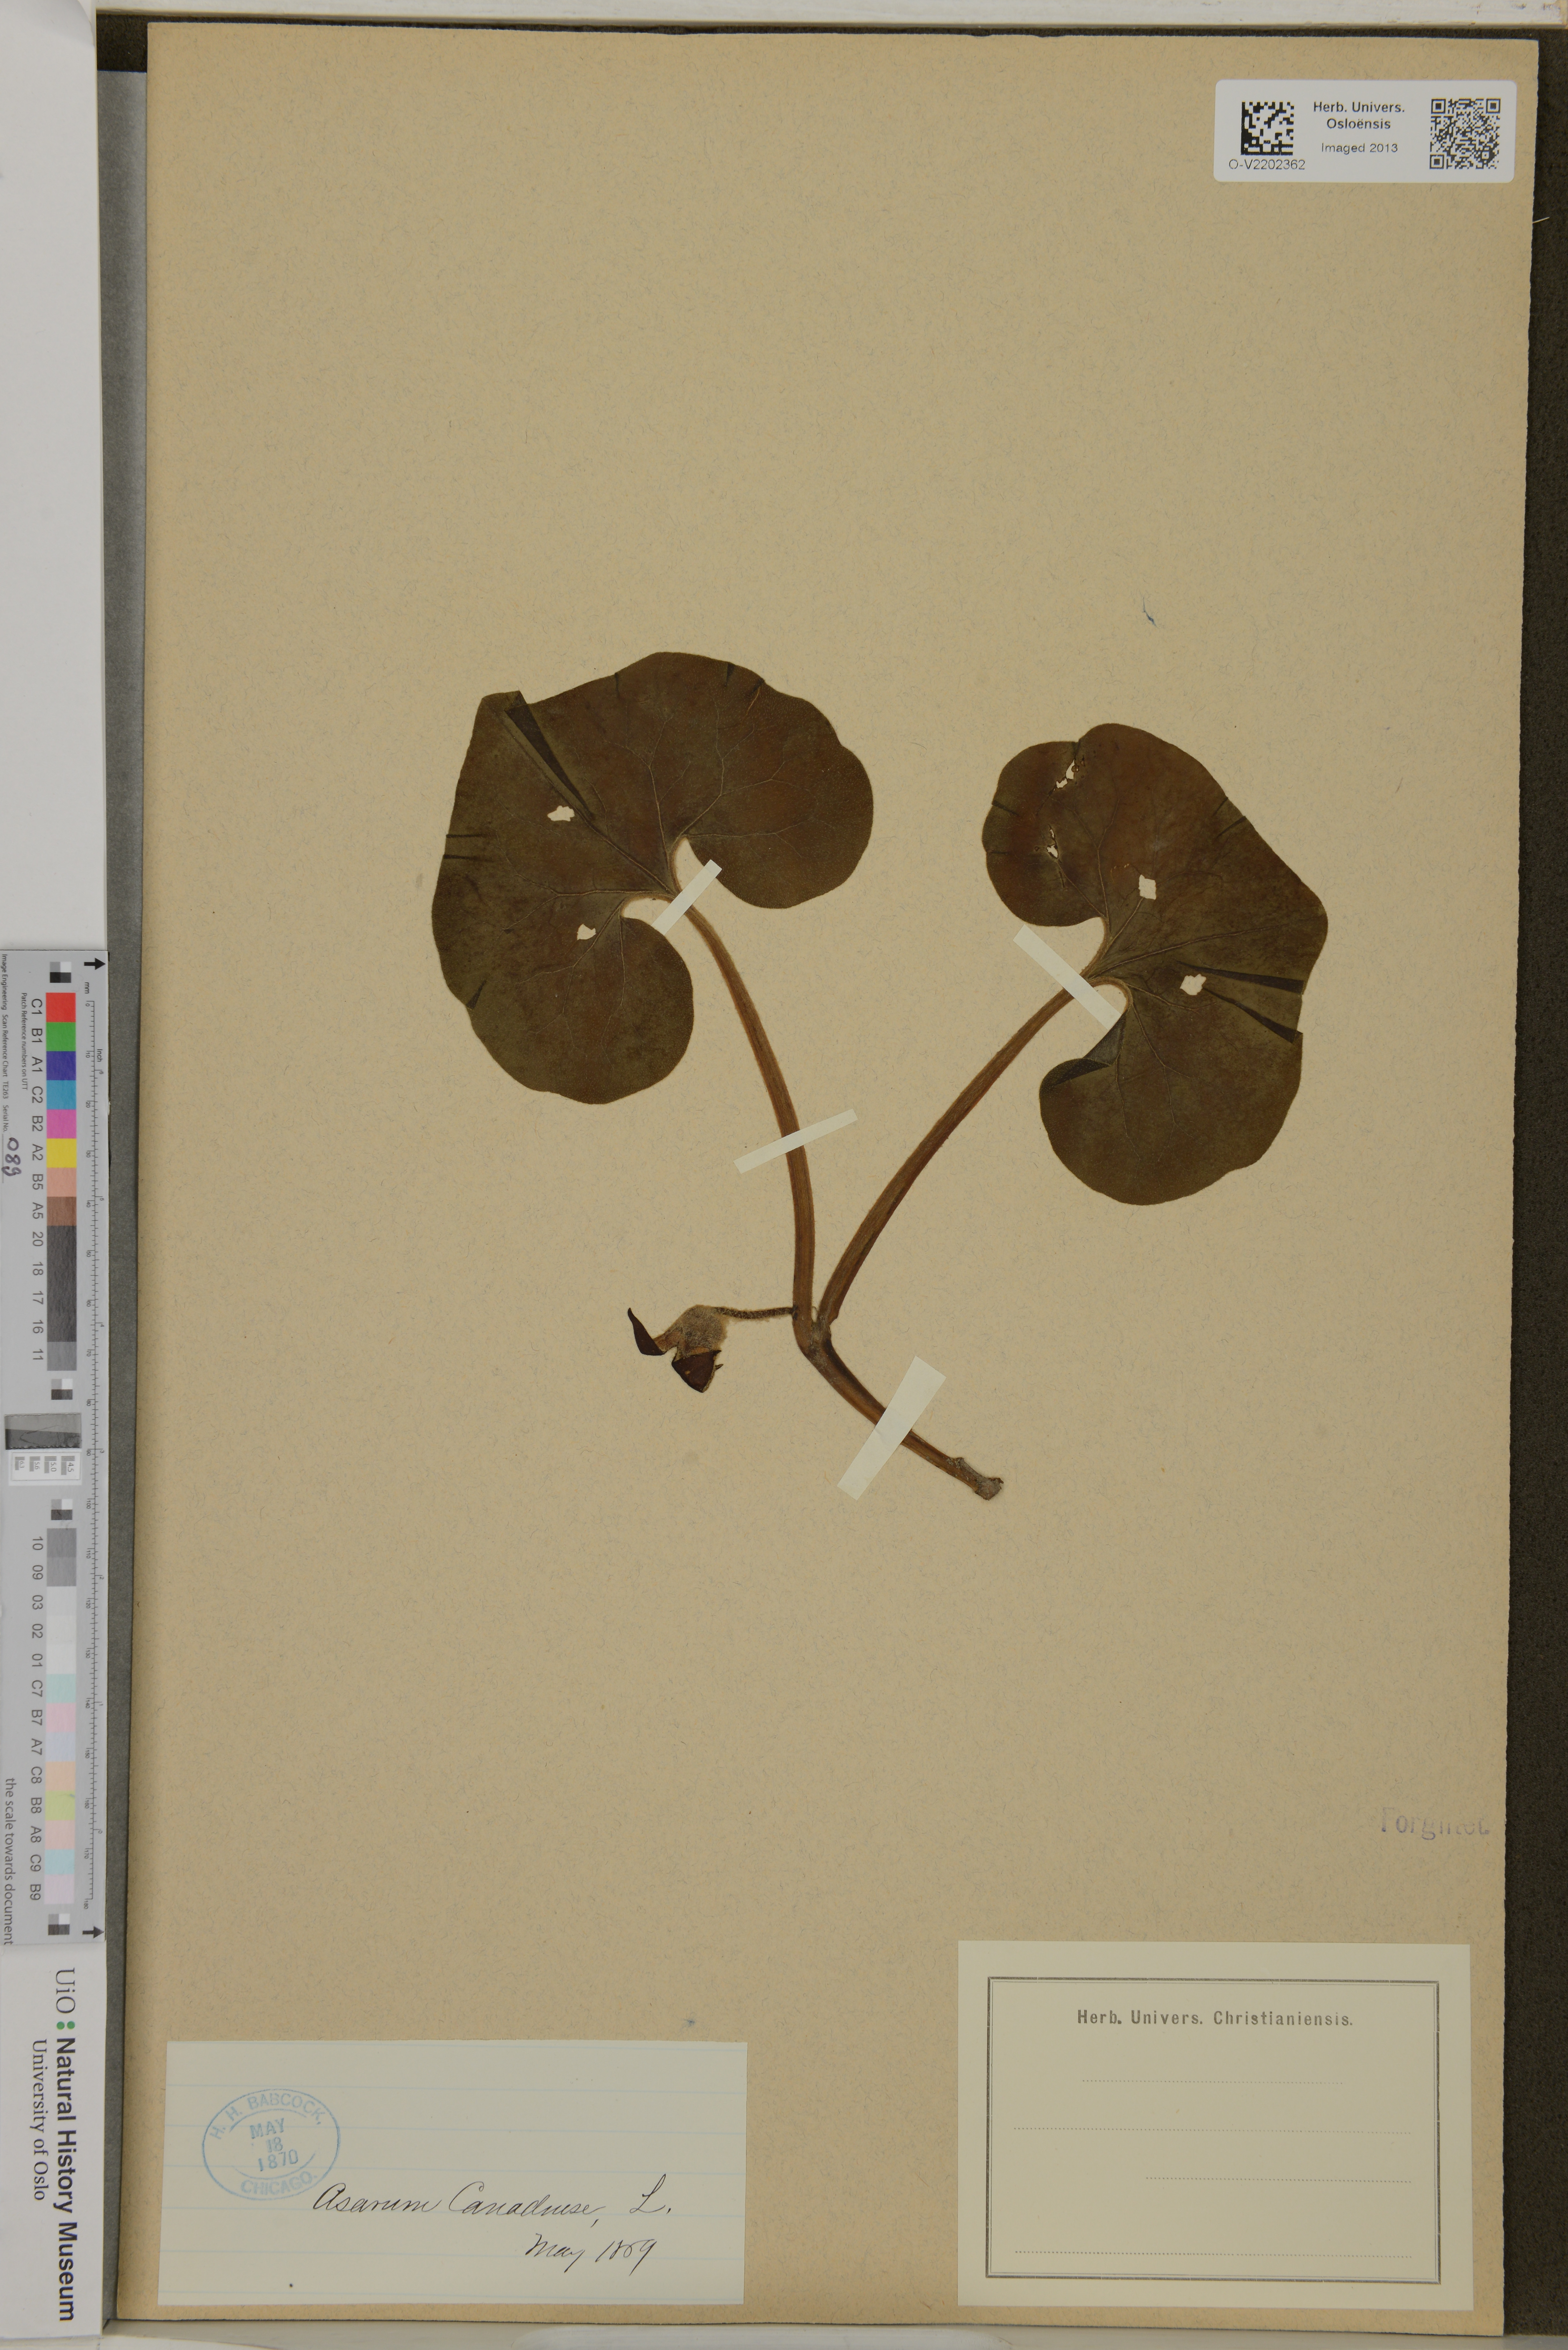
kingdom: Plantae
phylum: Tracheophyta
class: Magnoliopsida
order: Piperales
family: Aristolochiaceae
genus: Asarum
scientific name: Asarum canadense
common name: Wild ginger
